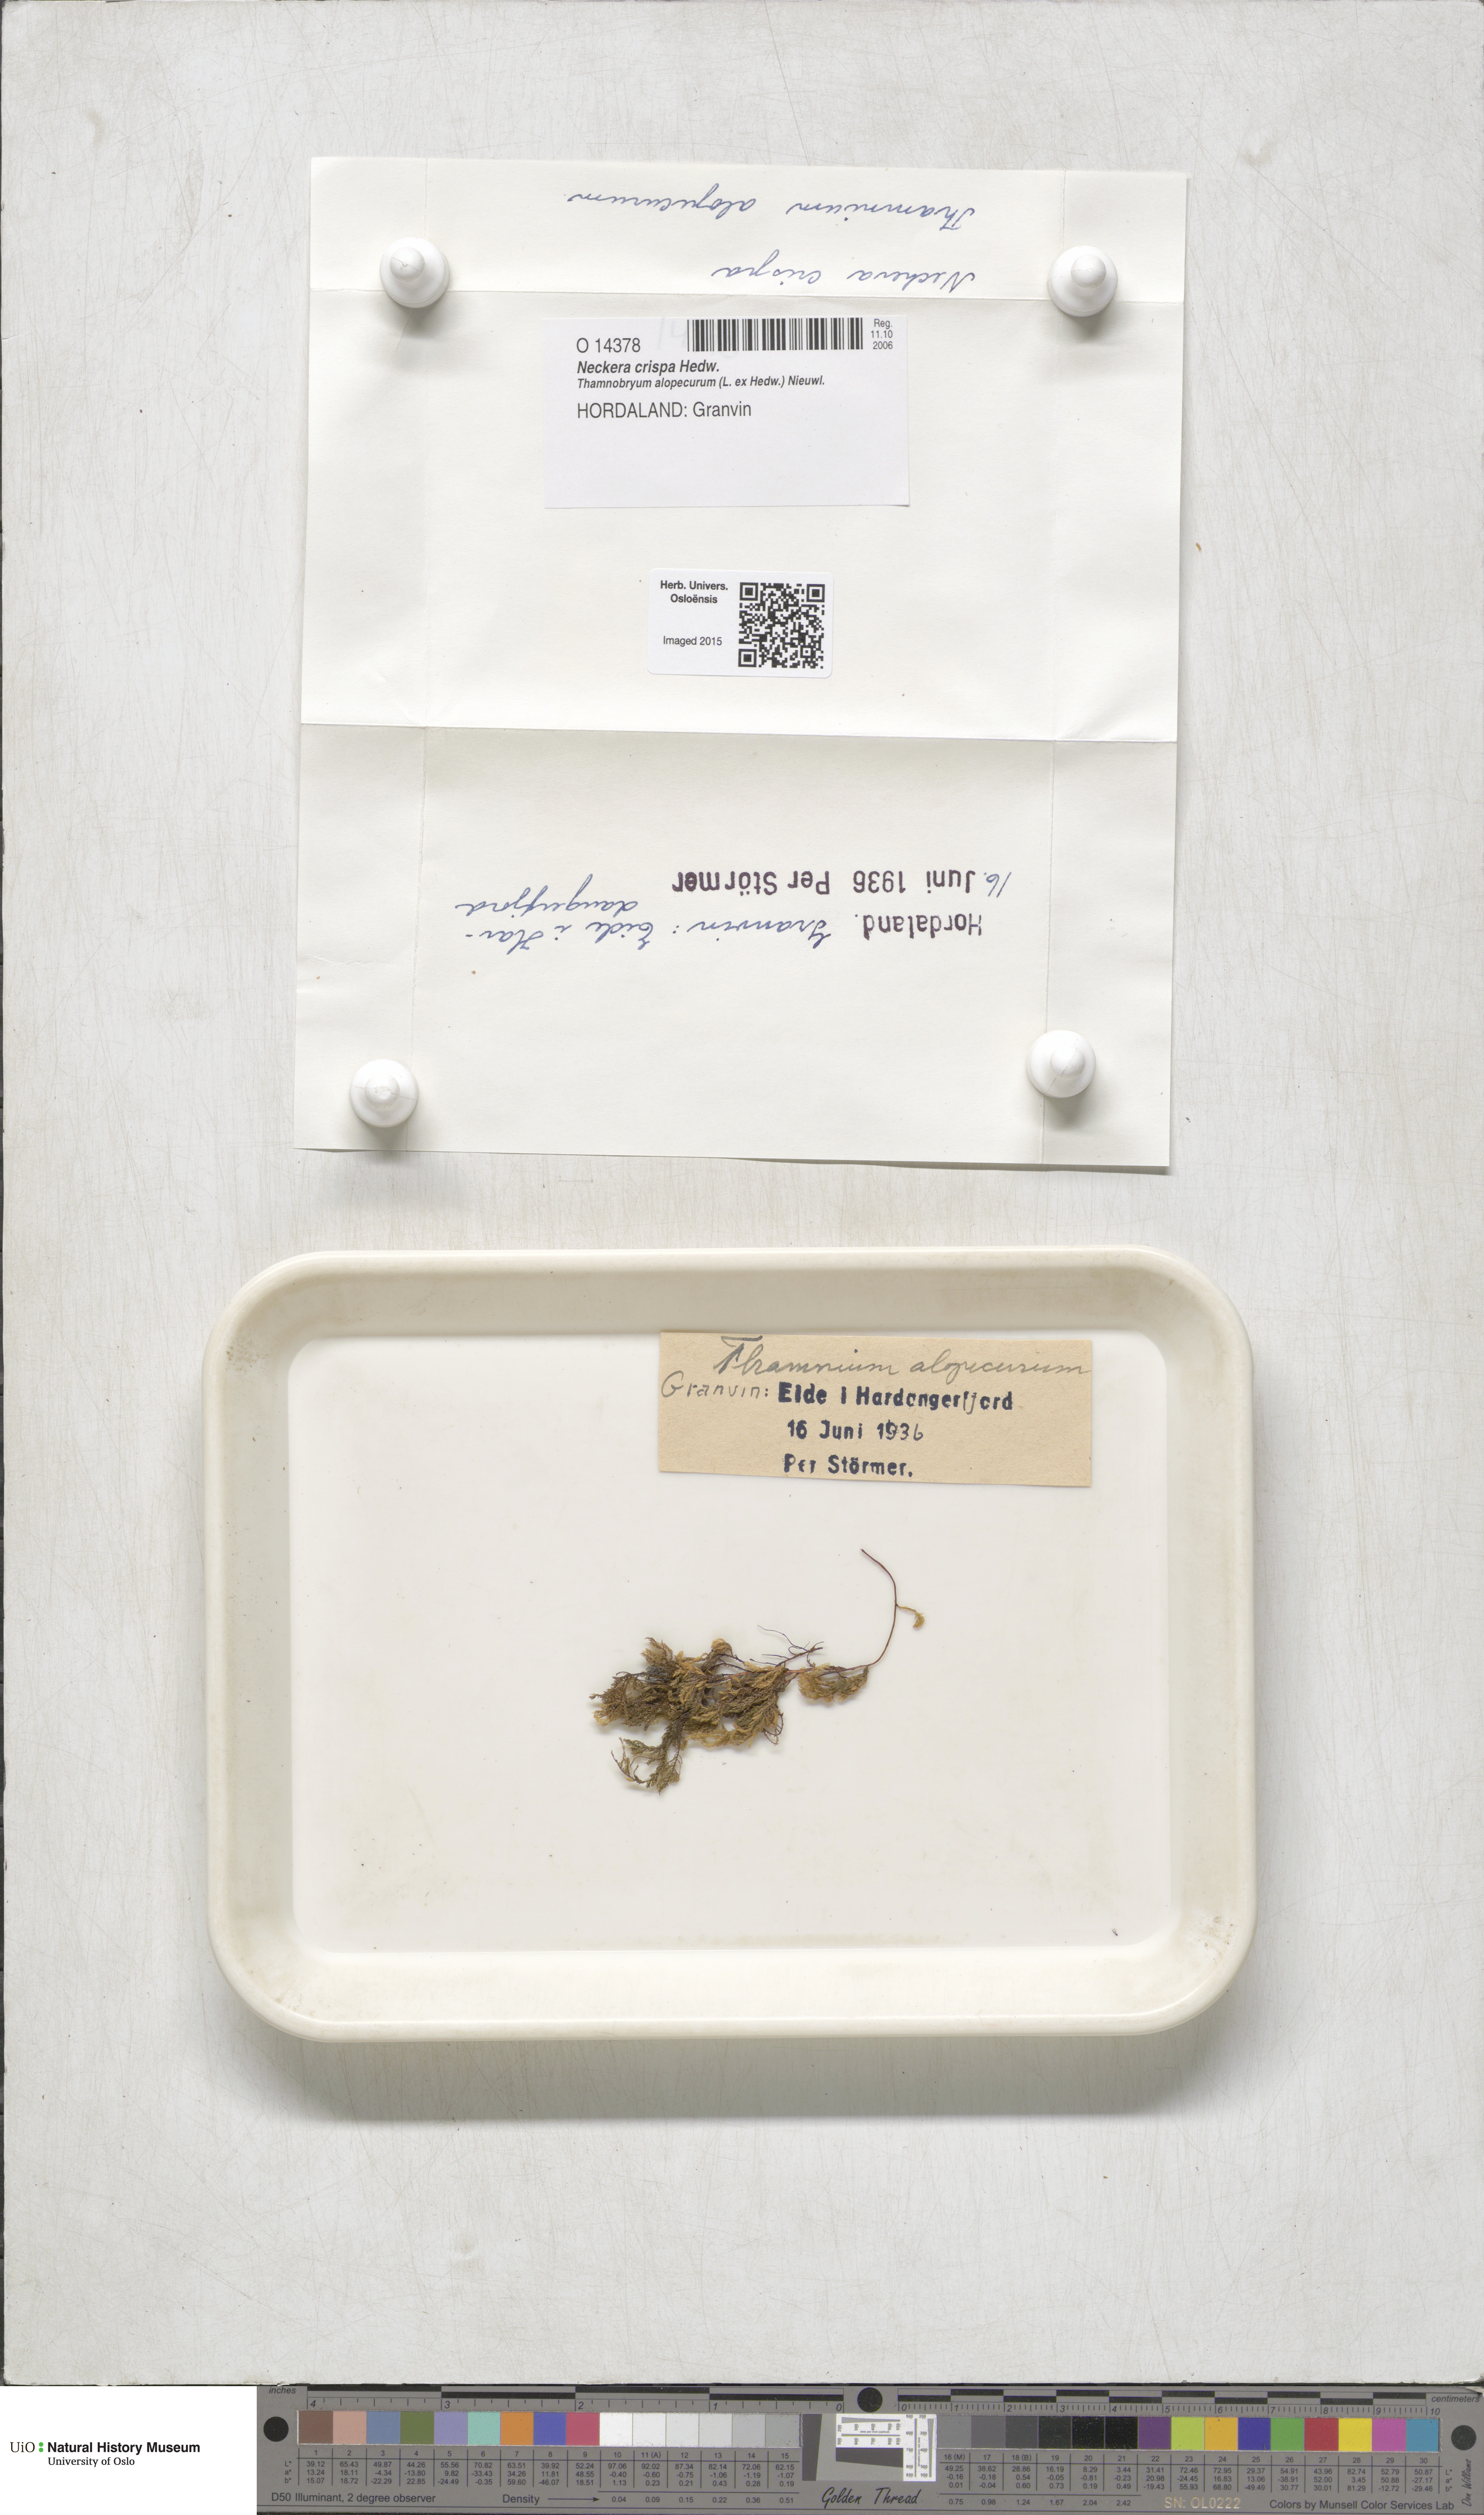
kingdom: Plantae
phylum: Bryophyta
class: Bryopsida
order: Hypnales
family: Neckeraceae
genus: Exsertotheca
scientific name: Exsertotheca crispa
